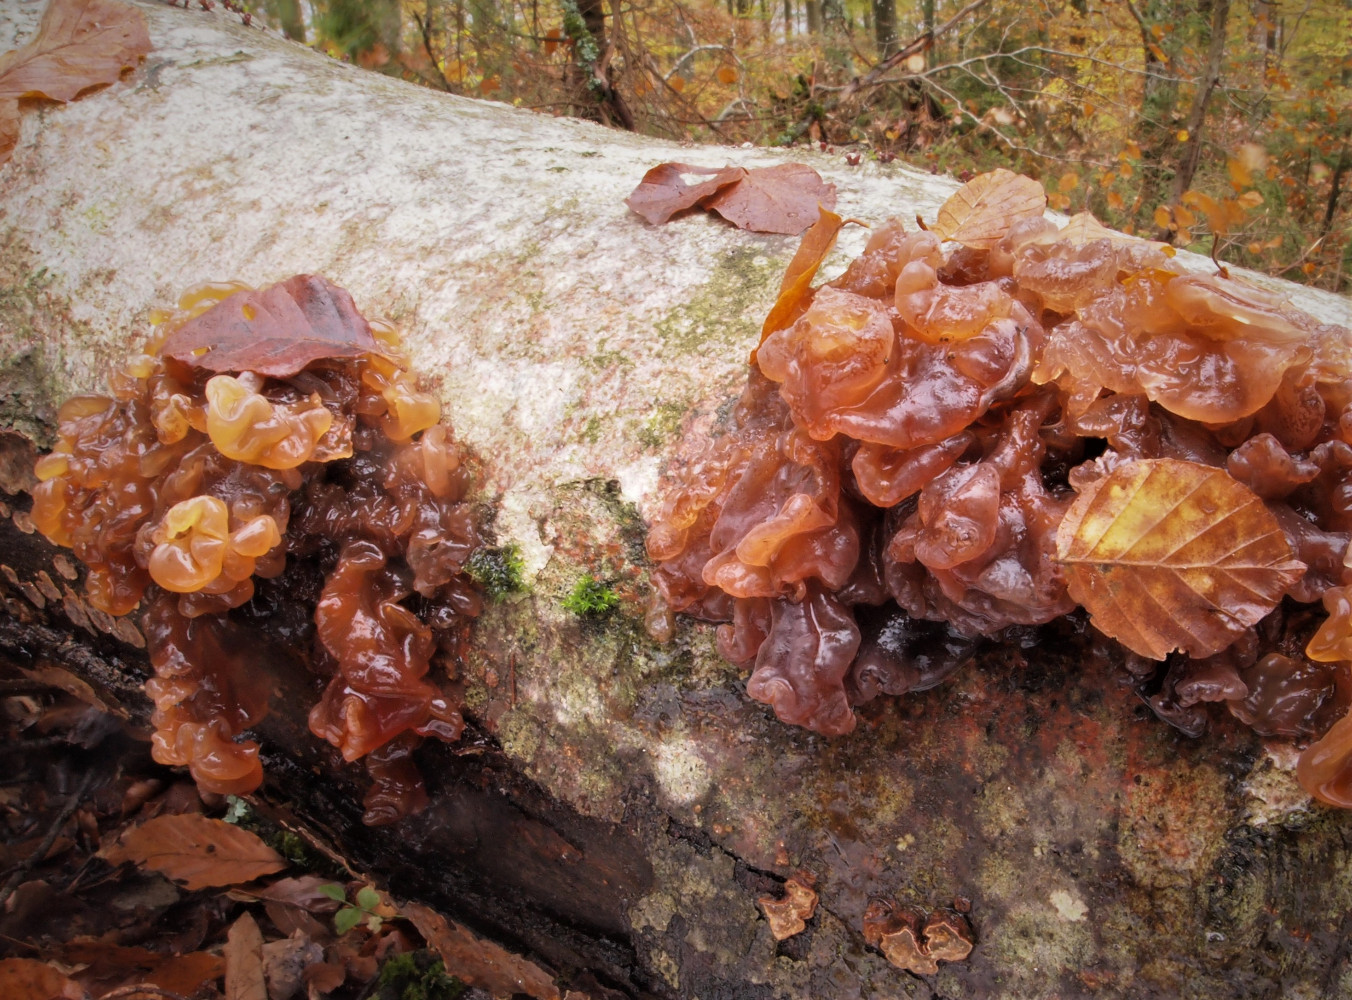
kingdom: Fungi
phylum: Basidiomycota
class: Tremellomycetes
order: Tremellales
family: Tremellaceae
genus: Phaeotremella
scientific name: Phaeotremella foliacea
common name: brun bævresvamp
